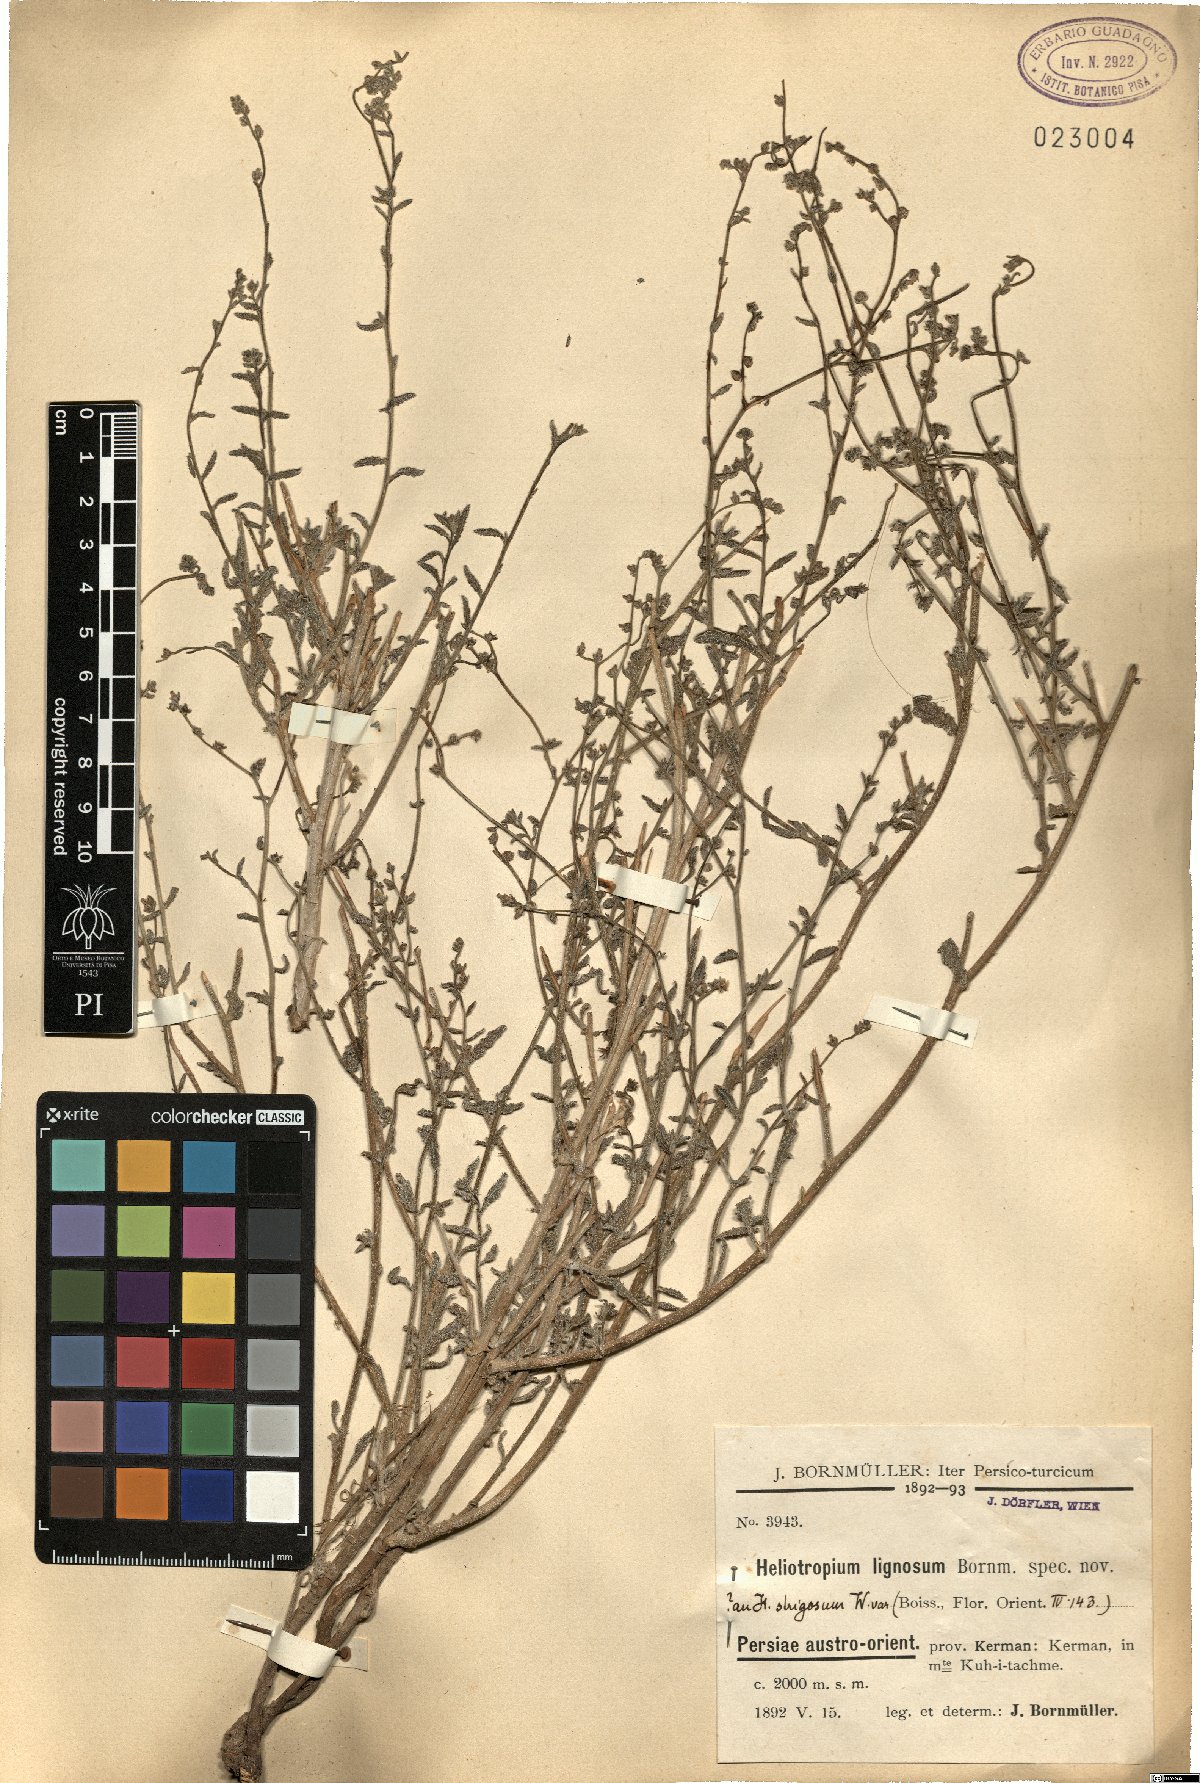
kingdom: Plantae
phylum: Tracheophyta
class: Magnoliopsida
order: Boraginales
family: Heliotropiaceae
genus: Heliotropium
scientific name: Heliotropium ramosissimum
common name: Wavy heliotrope
